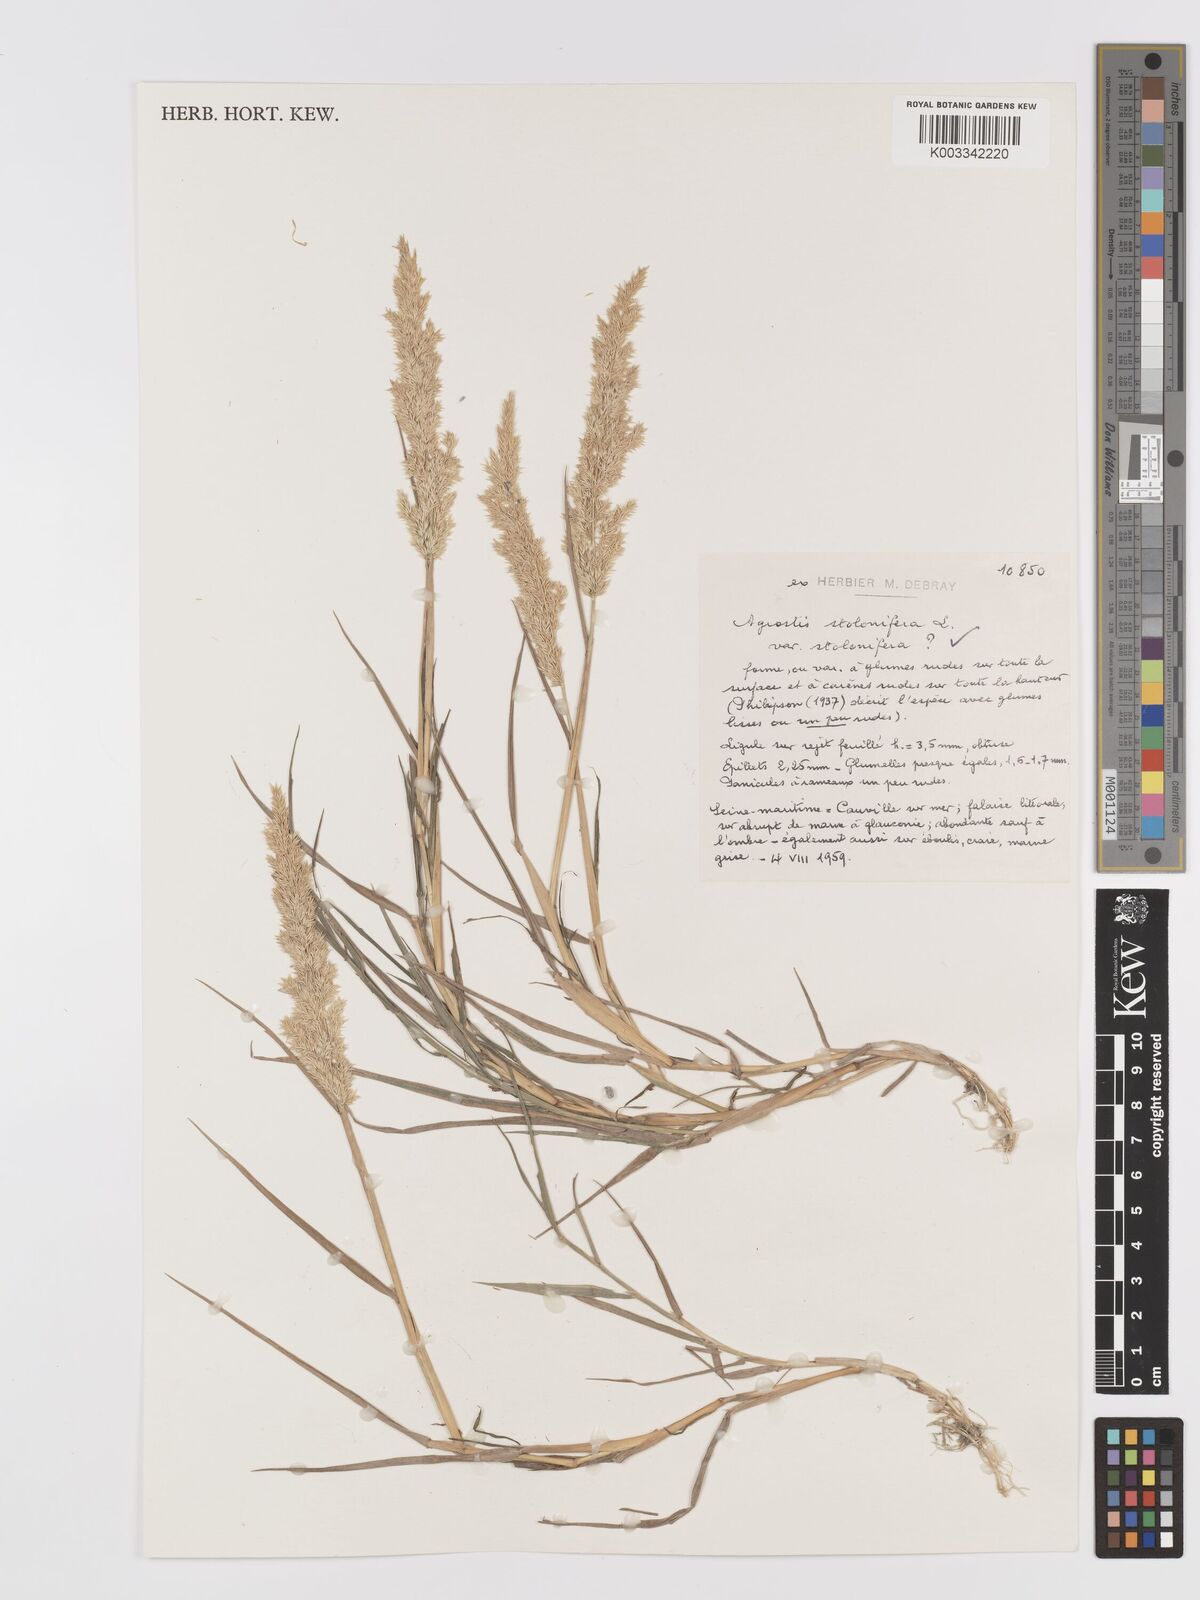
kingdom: Plantae
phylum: Tracheophyta
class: Liliopsida
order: Poales
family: Poaceae
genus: Agrostis
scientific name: Agrostis stolonifera
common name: Creeping bentgrass
